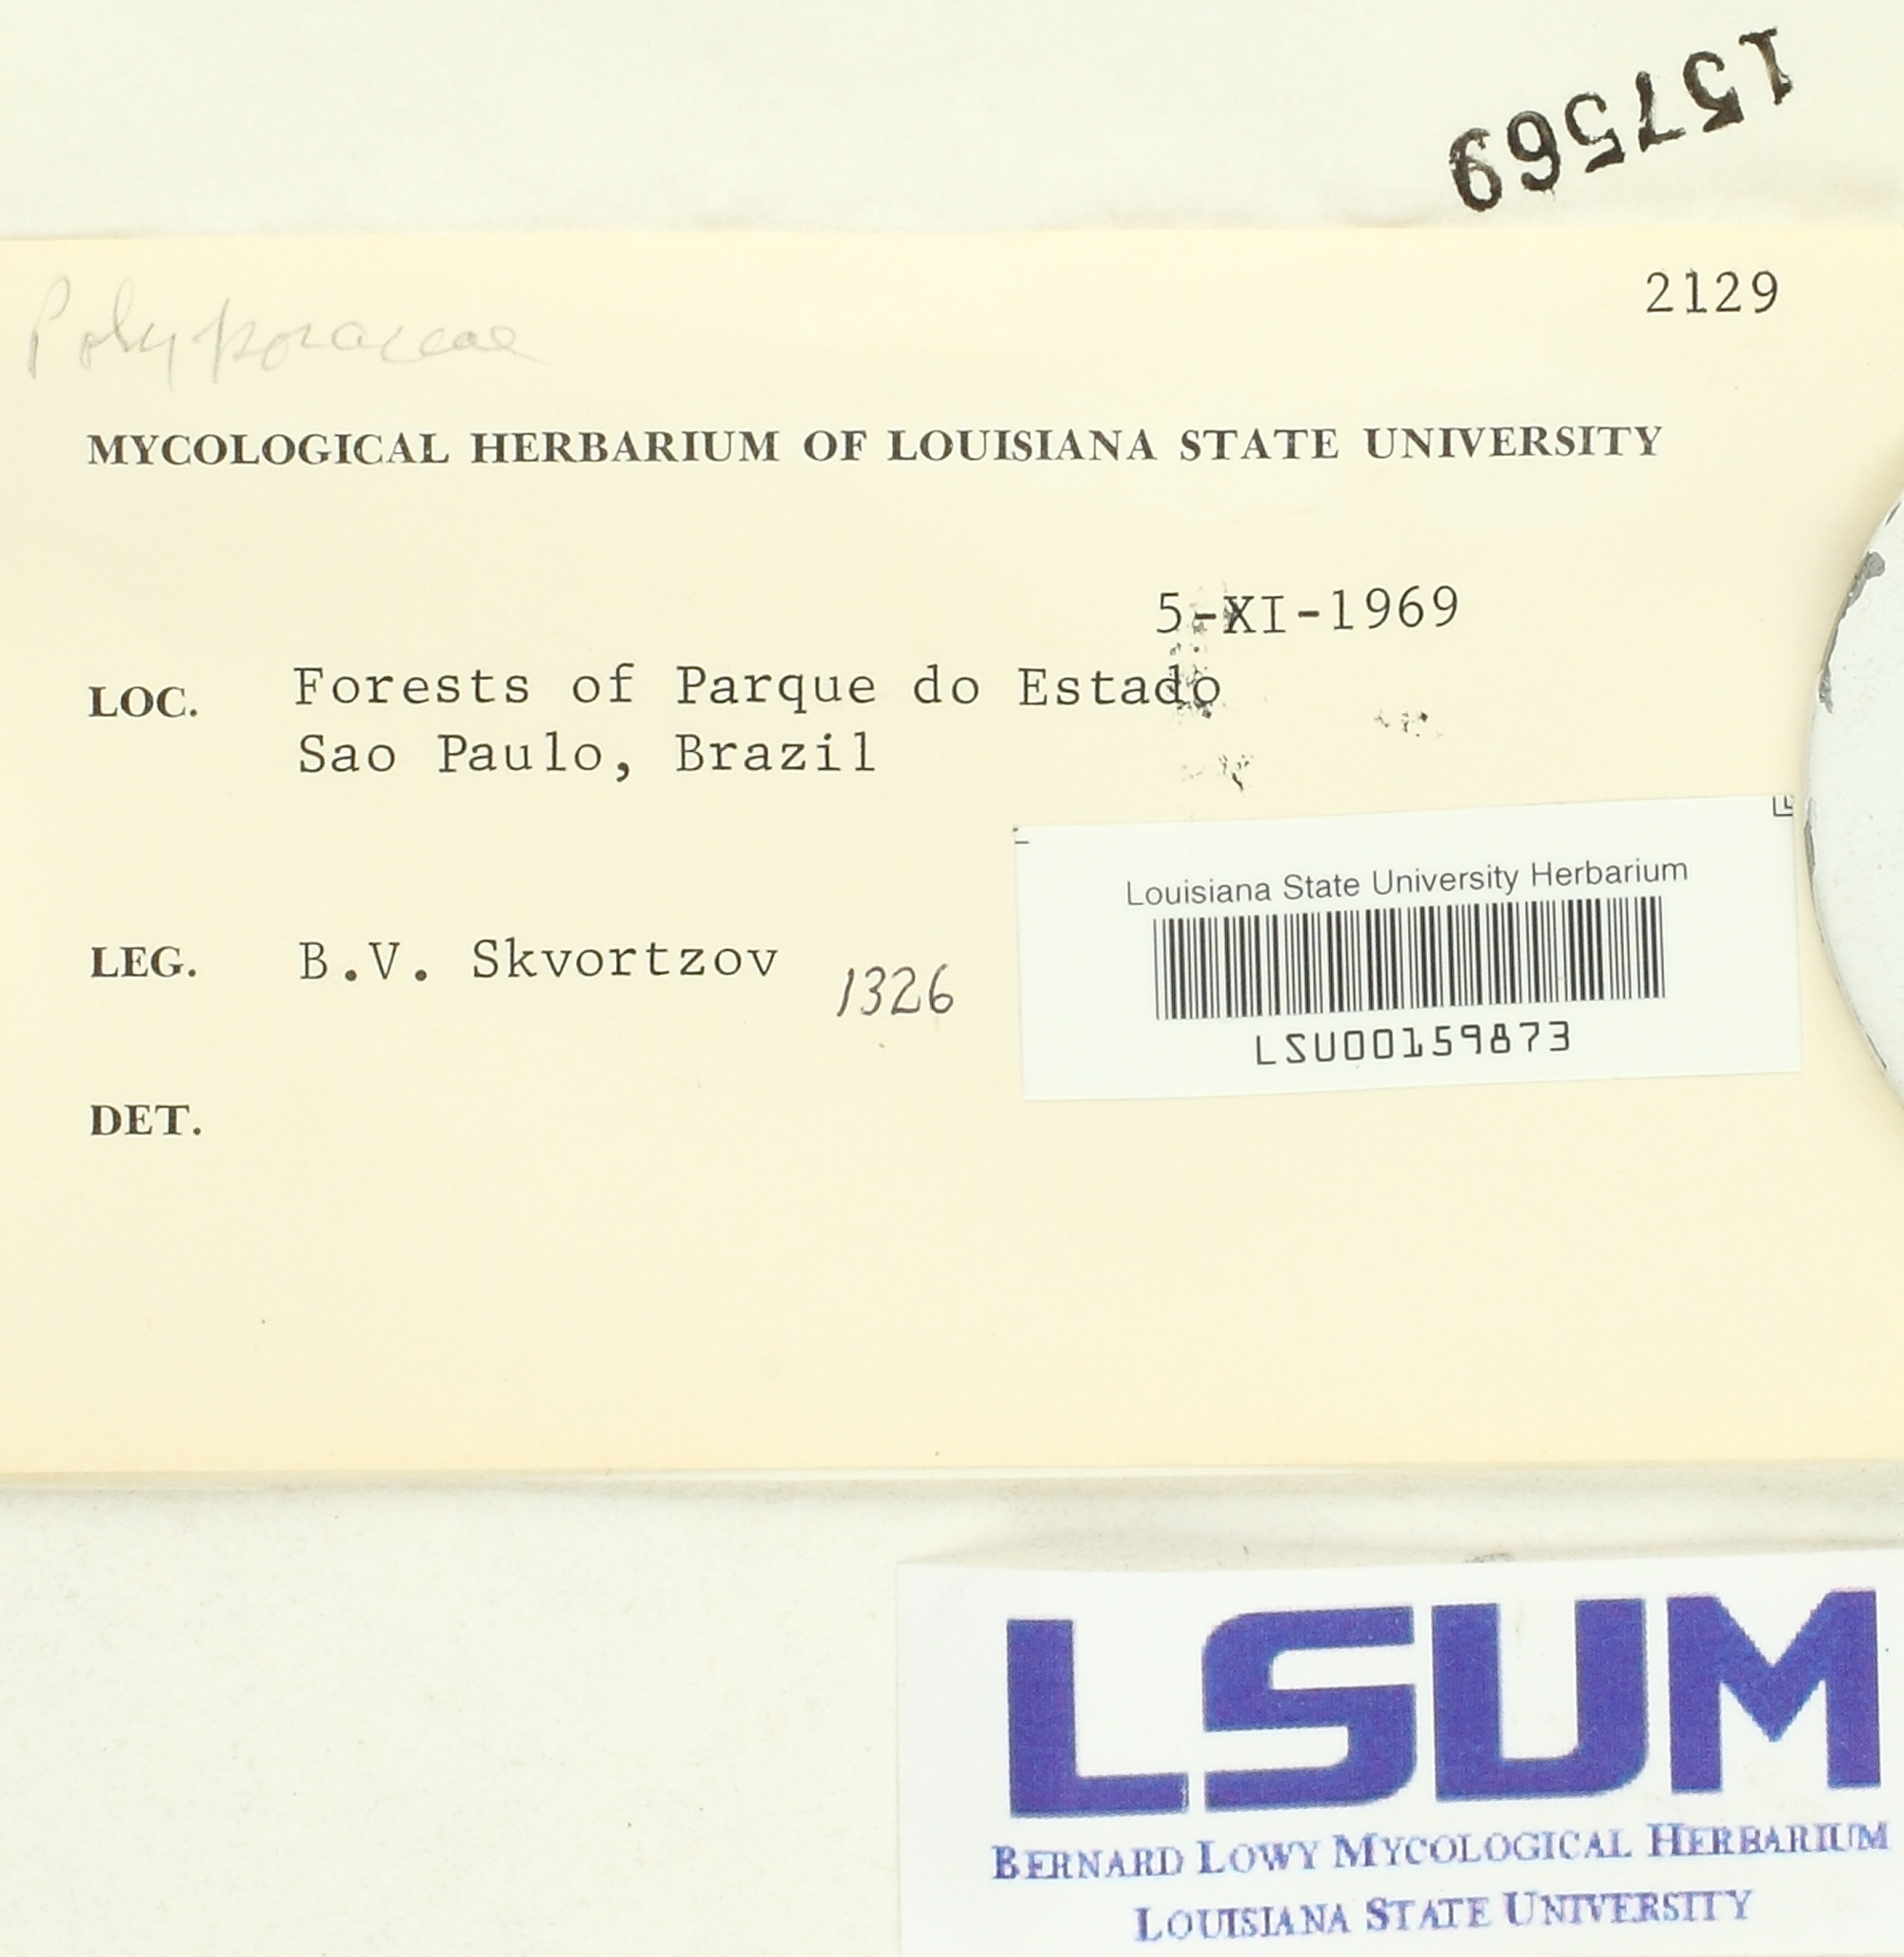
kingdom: Fungi
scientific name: Fungi
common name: Fungi
